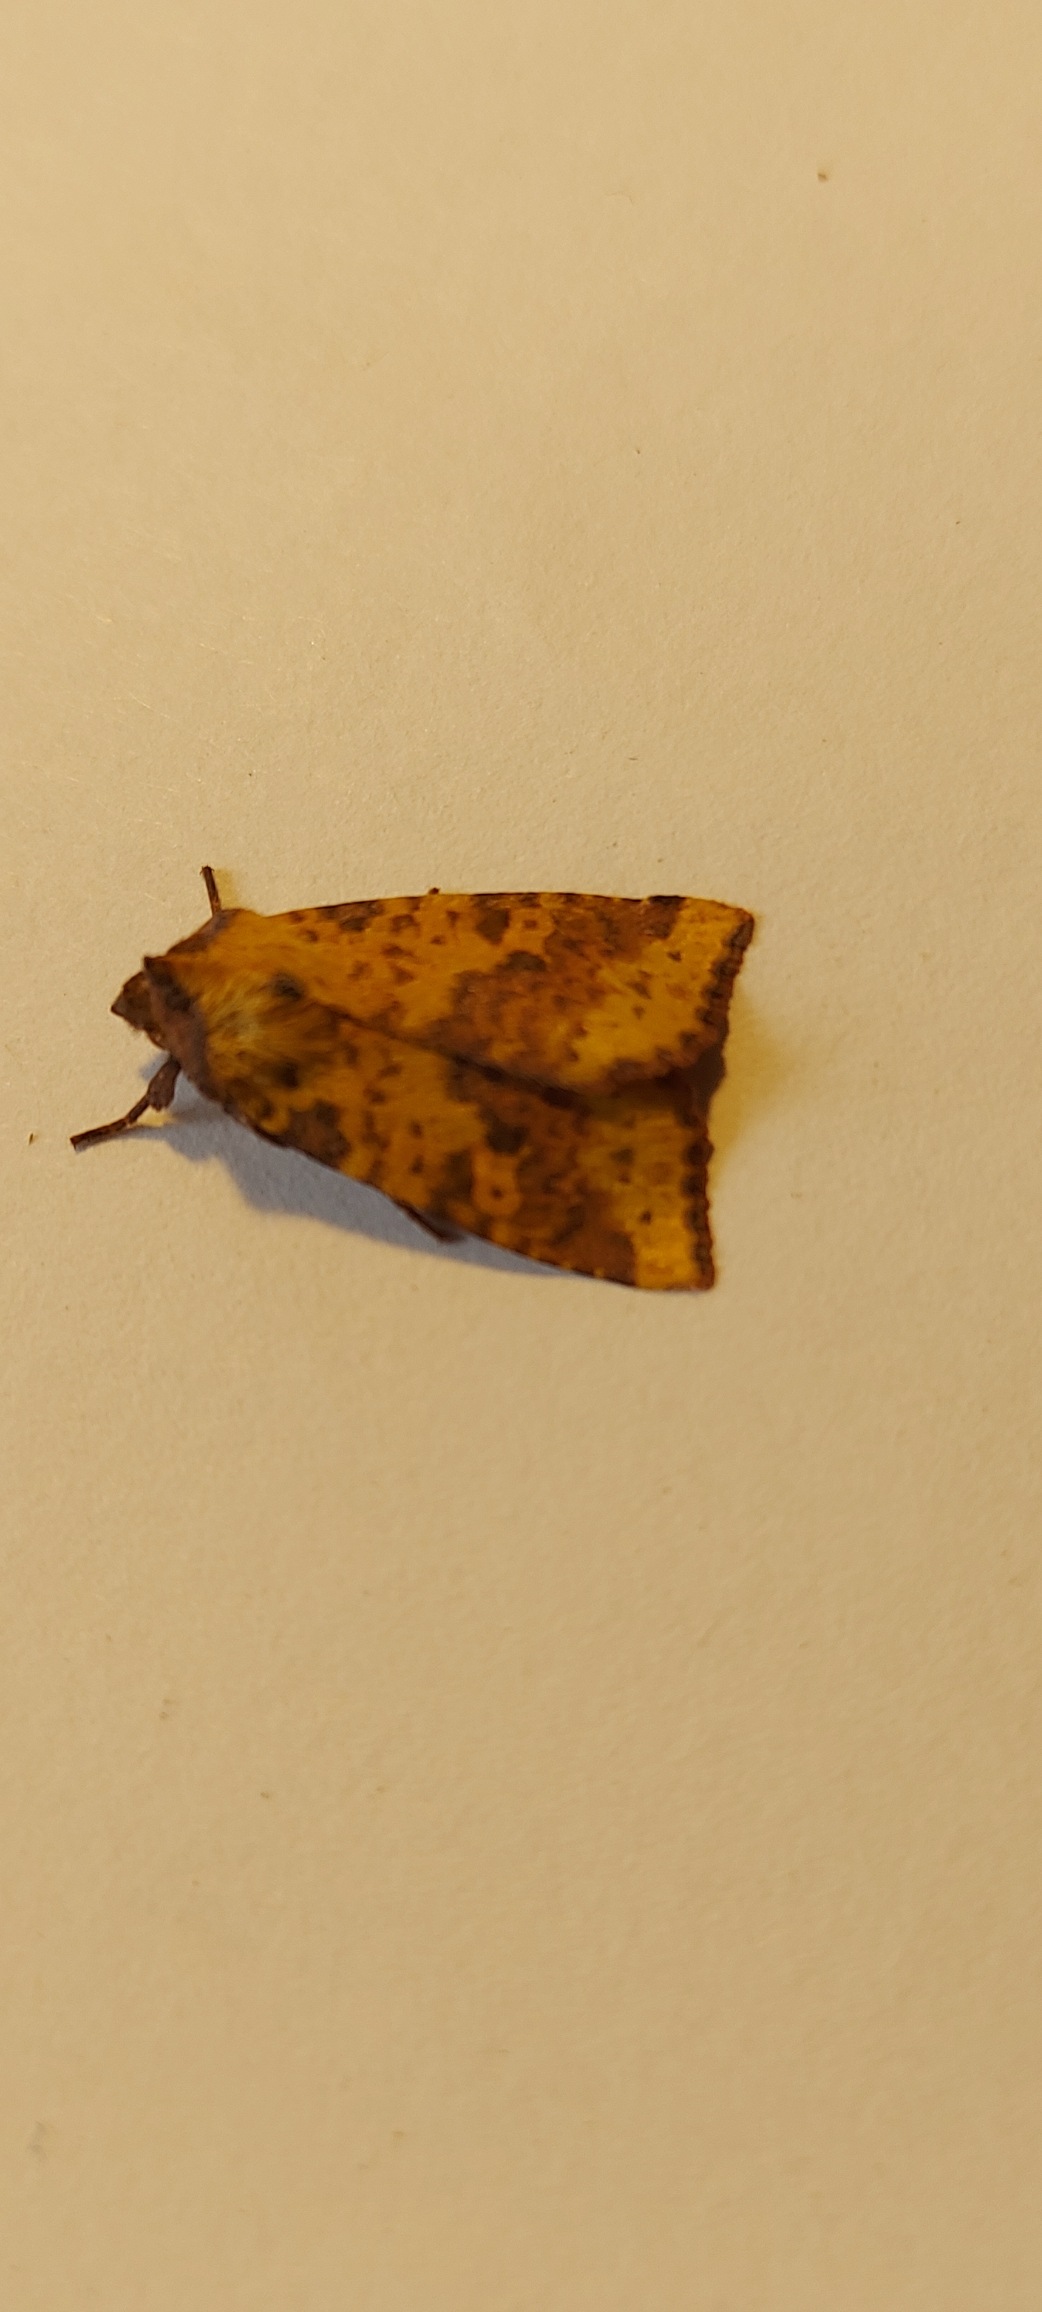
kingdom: Animalia
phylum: Arthropoda
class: Insecta
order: Lepidoptera
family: Noctuidae
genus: Xanthia
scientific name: Xanthia togata
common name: Toga-septemberugle
